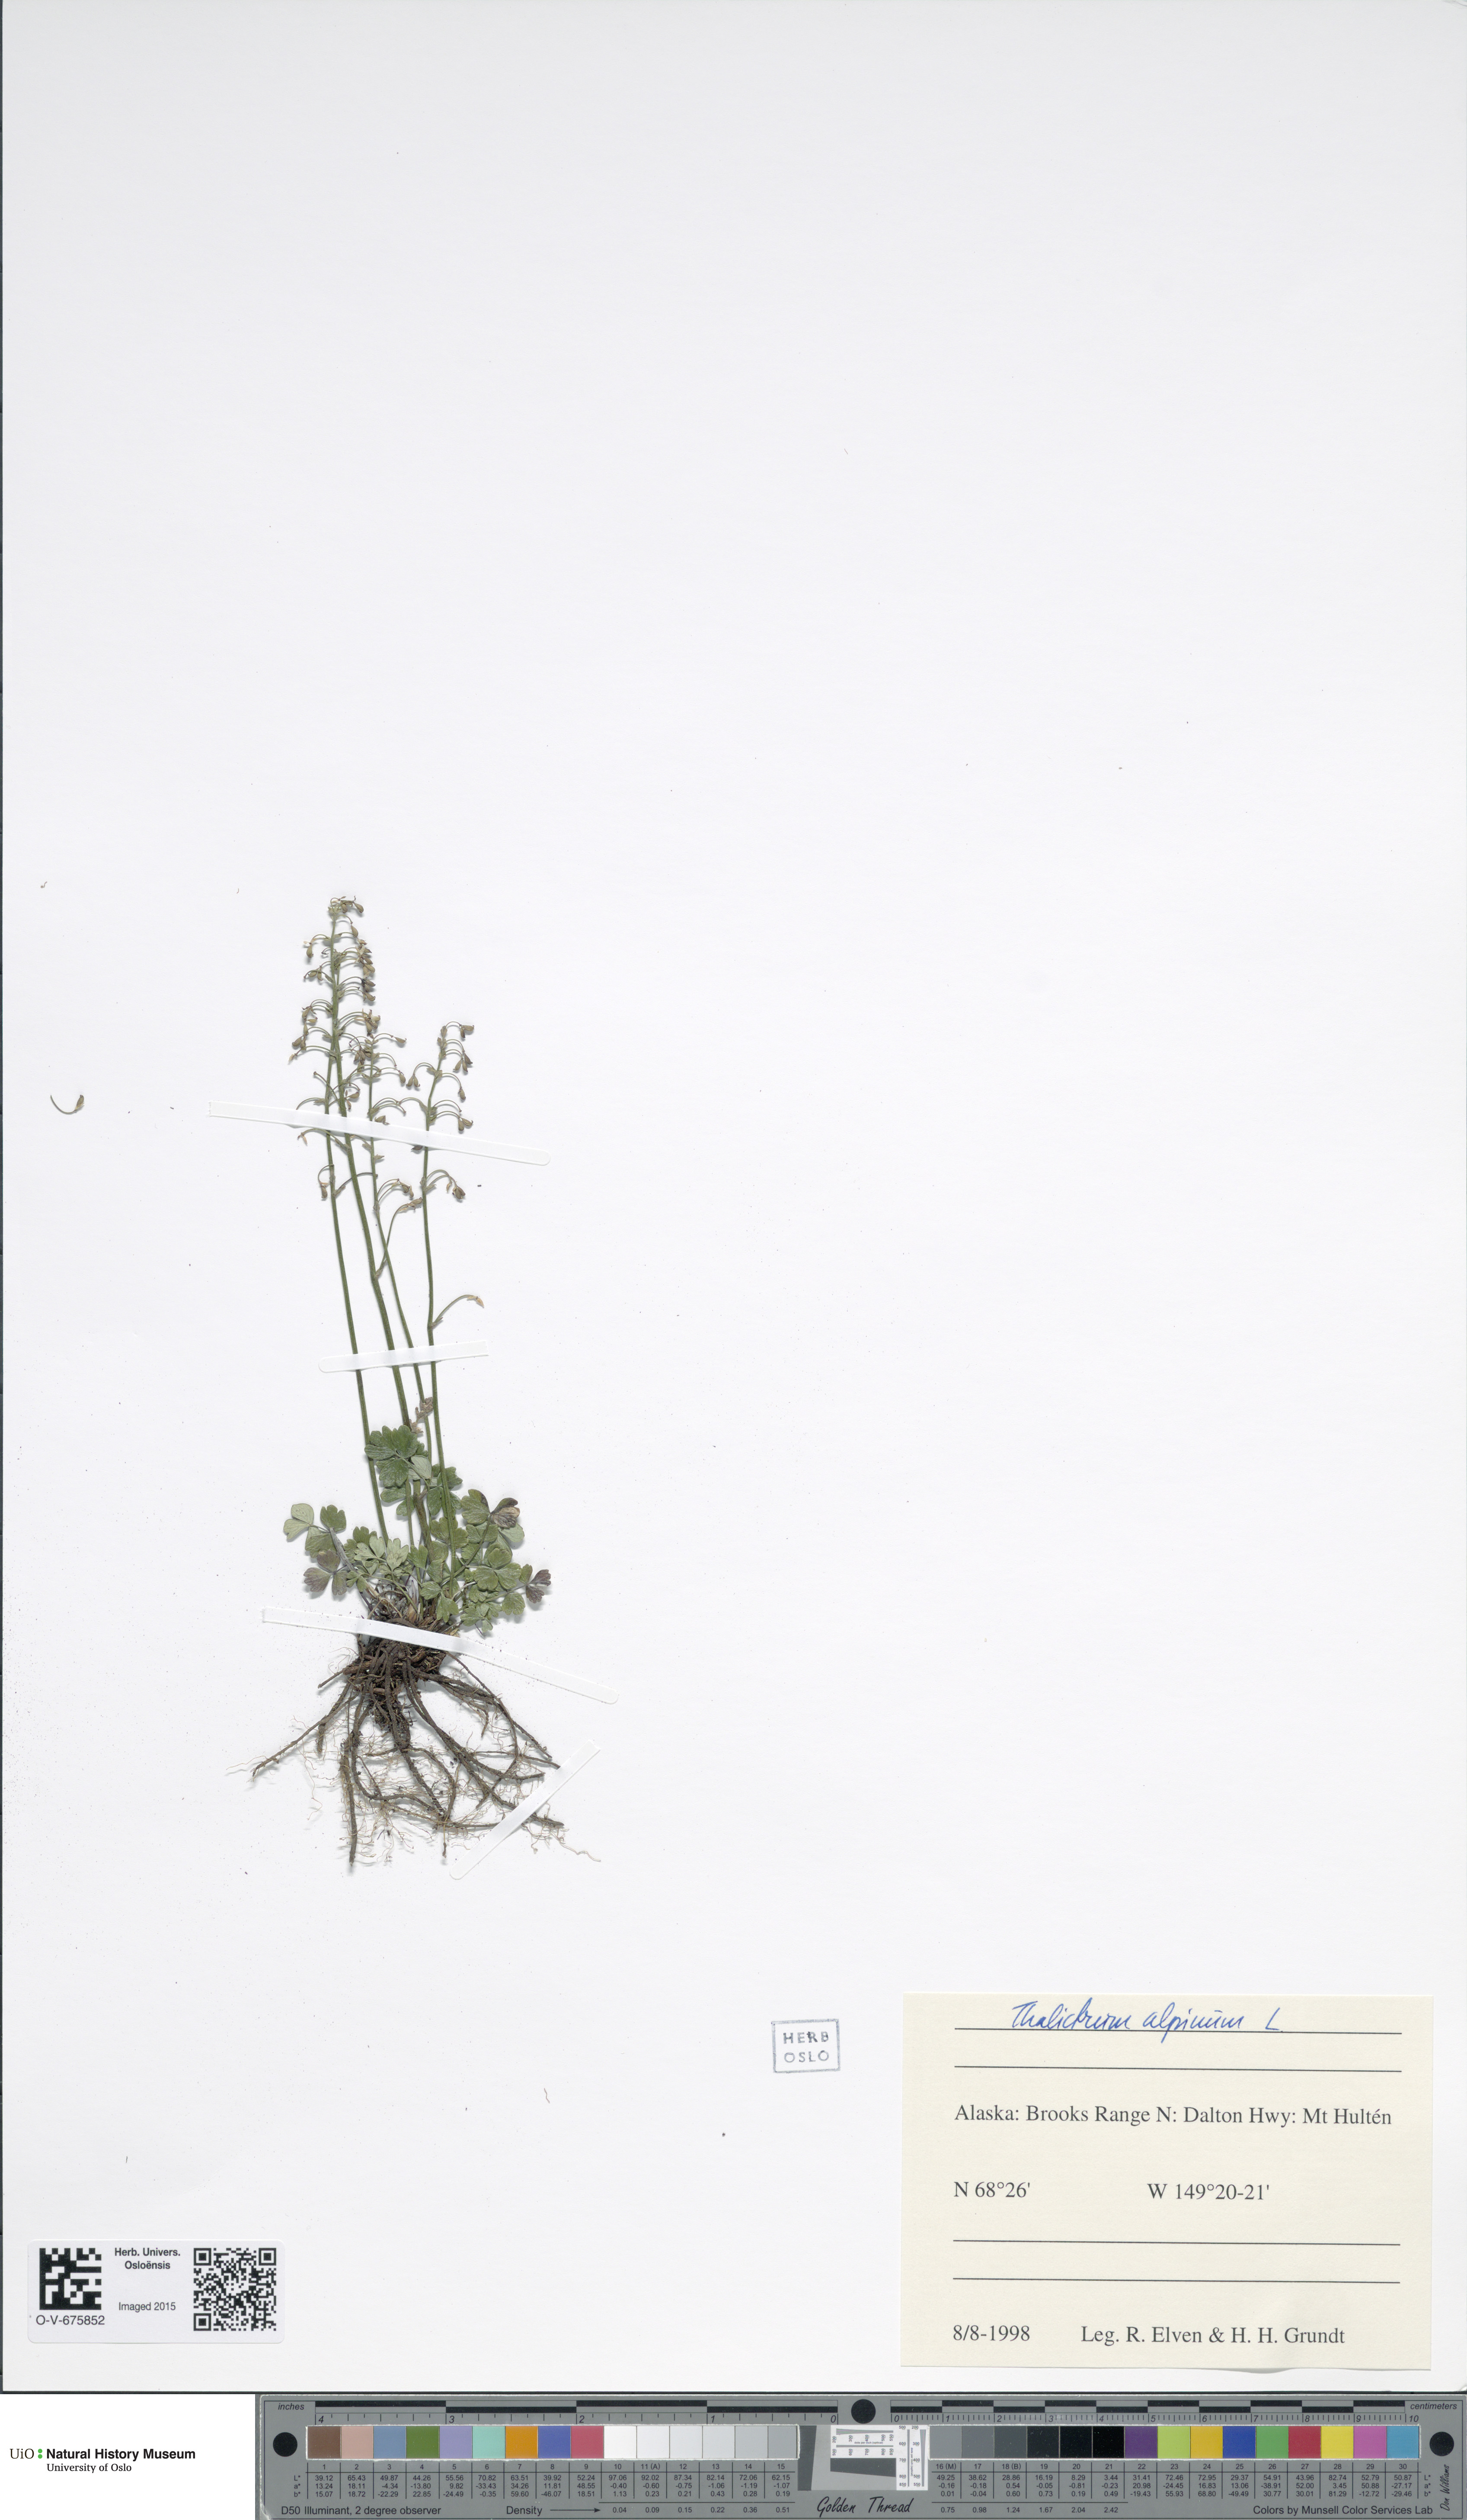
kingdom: Plantae
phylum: Tracheophyta
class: Magnoliopsida
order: Ranunculales
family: Ranunculaceae
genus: Thalictrum
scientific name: Thalictrum alpinum
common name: Alpine meadow-rue
